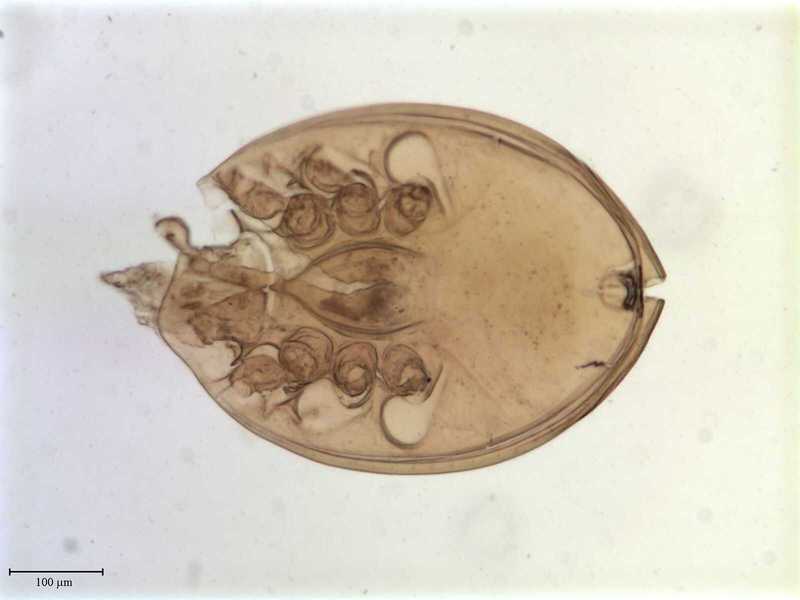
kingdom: Animalia
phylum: Arthropoda
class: Arachnida
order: Mesostigmata
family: Trematuridae
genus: Trichouropoda
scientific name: Trichouropoda sociata
